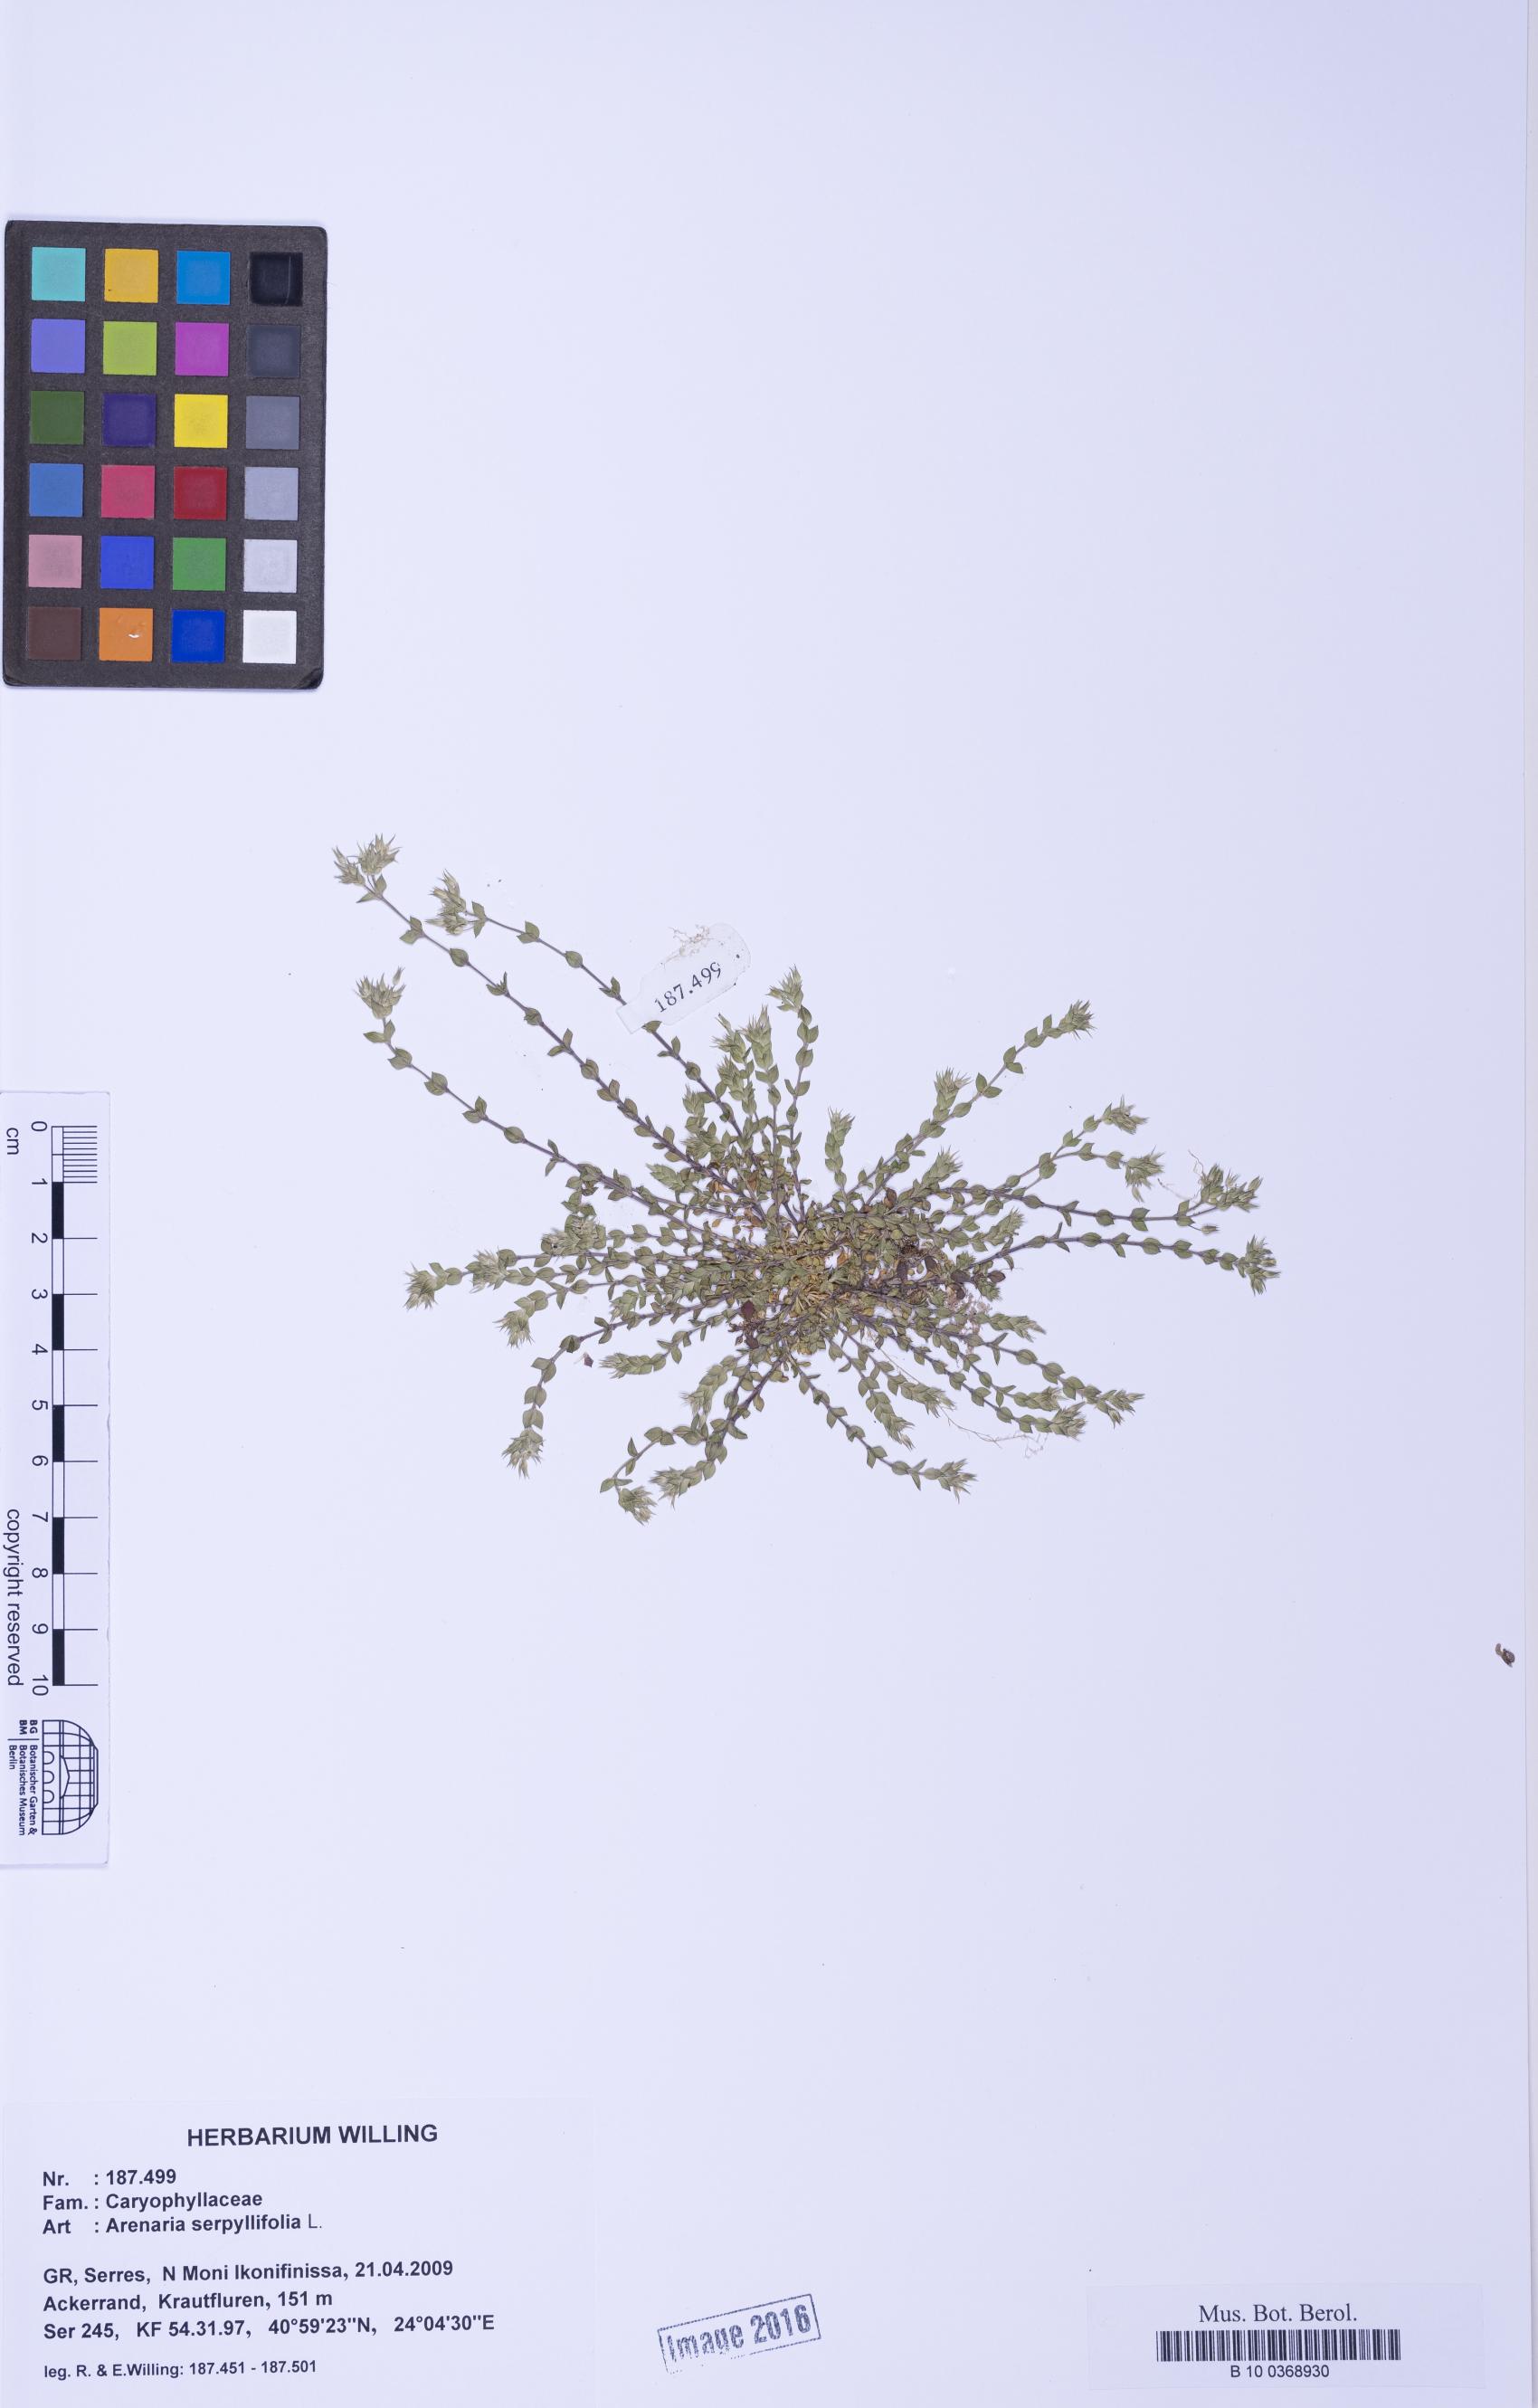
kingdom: Plantae
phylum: Tracheophyta
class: Magnoliopsida
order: Caryophyllales
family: Caryophyllaceae
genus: Arenaria
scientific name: Arenaria serpyllifolia
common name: Thyme-leaved sandwort
